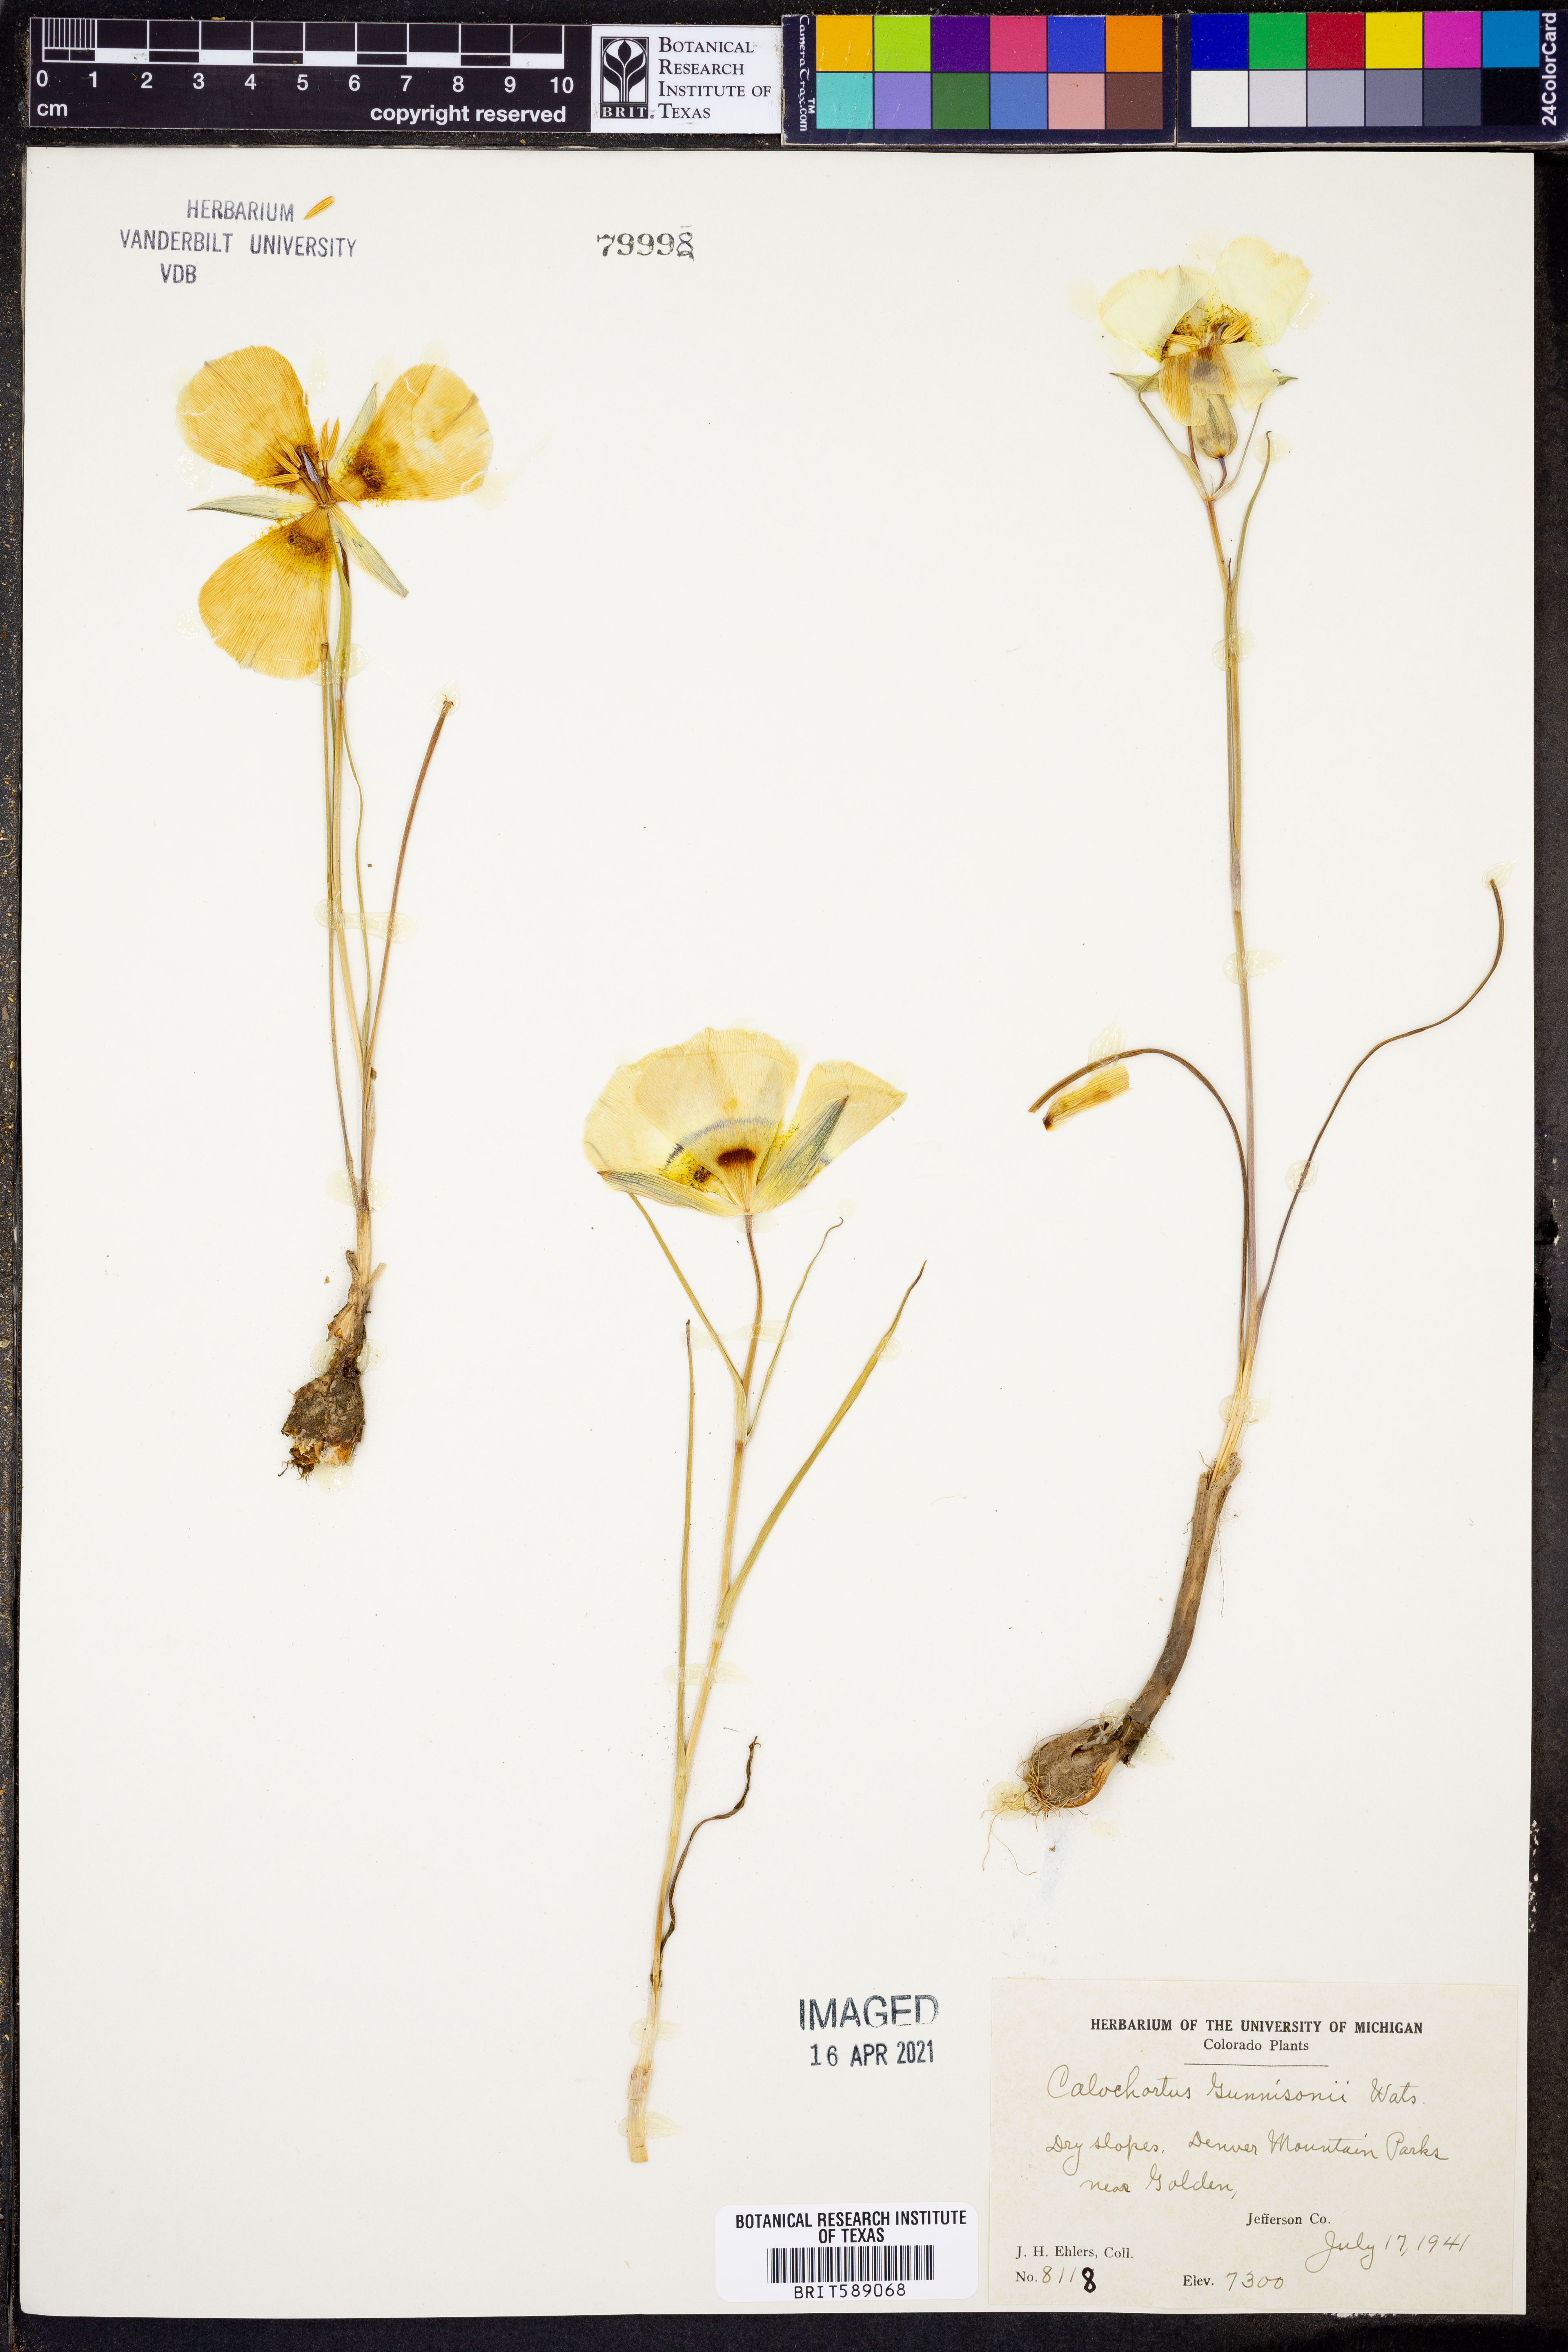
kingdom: Plantae
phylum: Tracheophyta
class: Liliopsida
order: Liliales
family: Liliaceae
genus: Calochortus
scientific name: Calochortus gunnisonii
